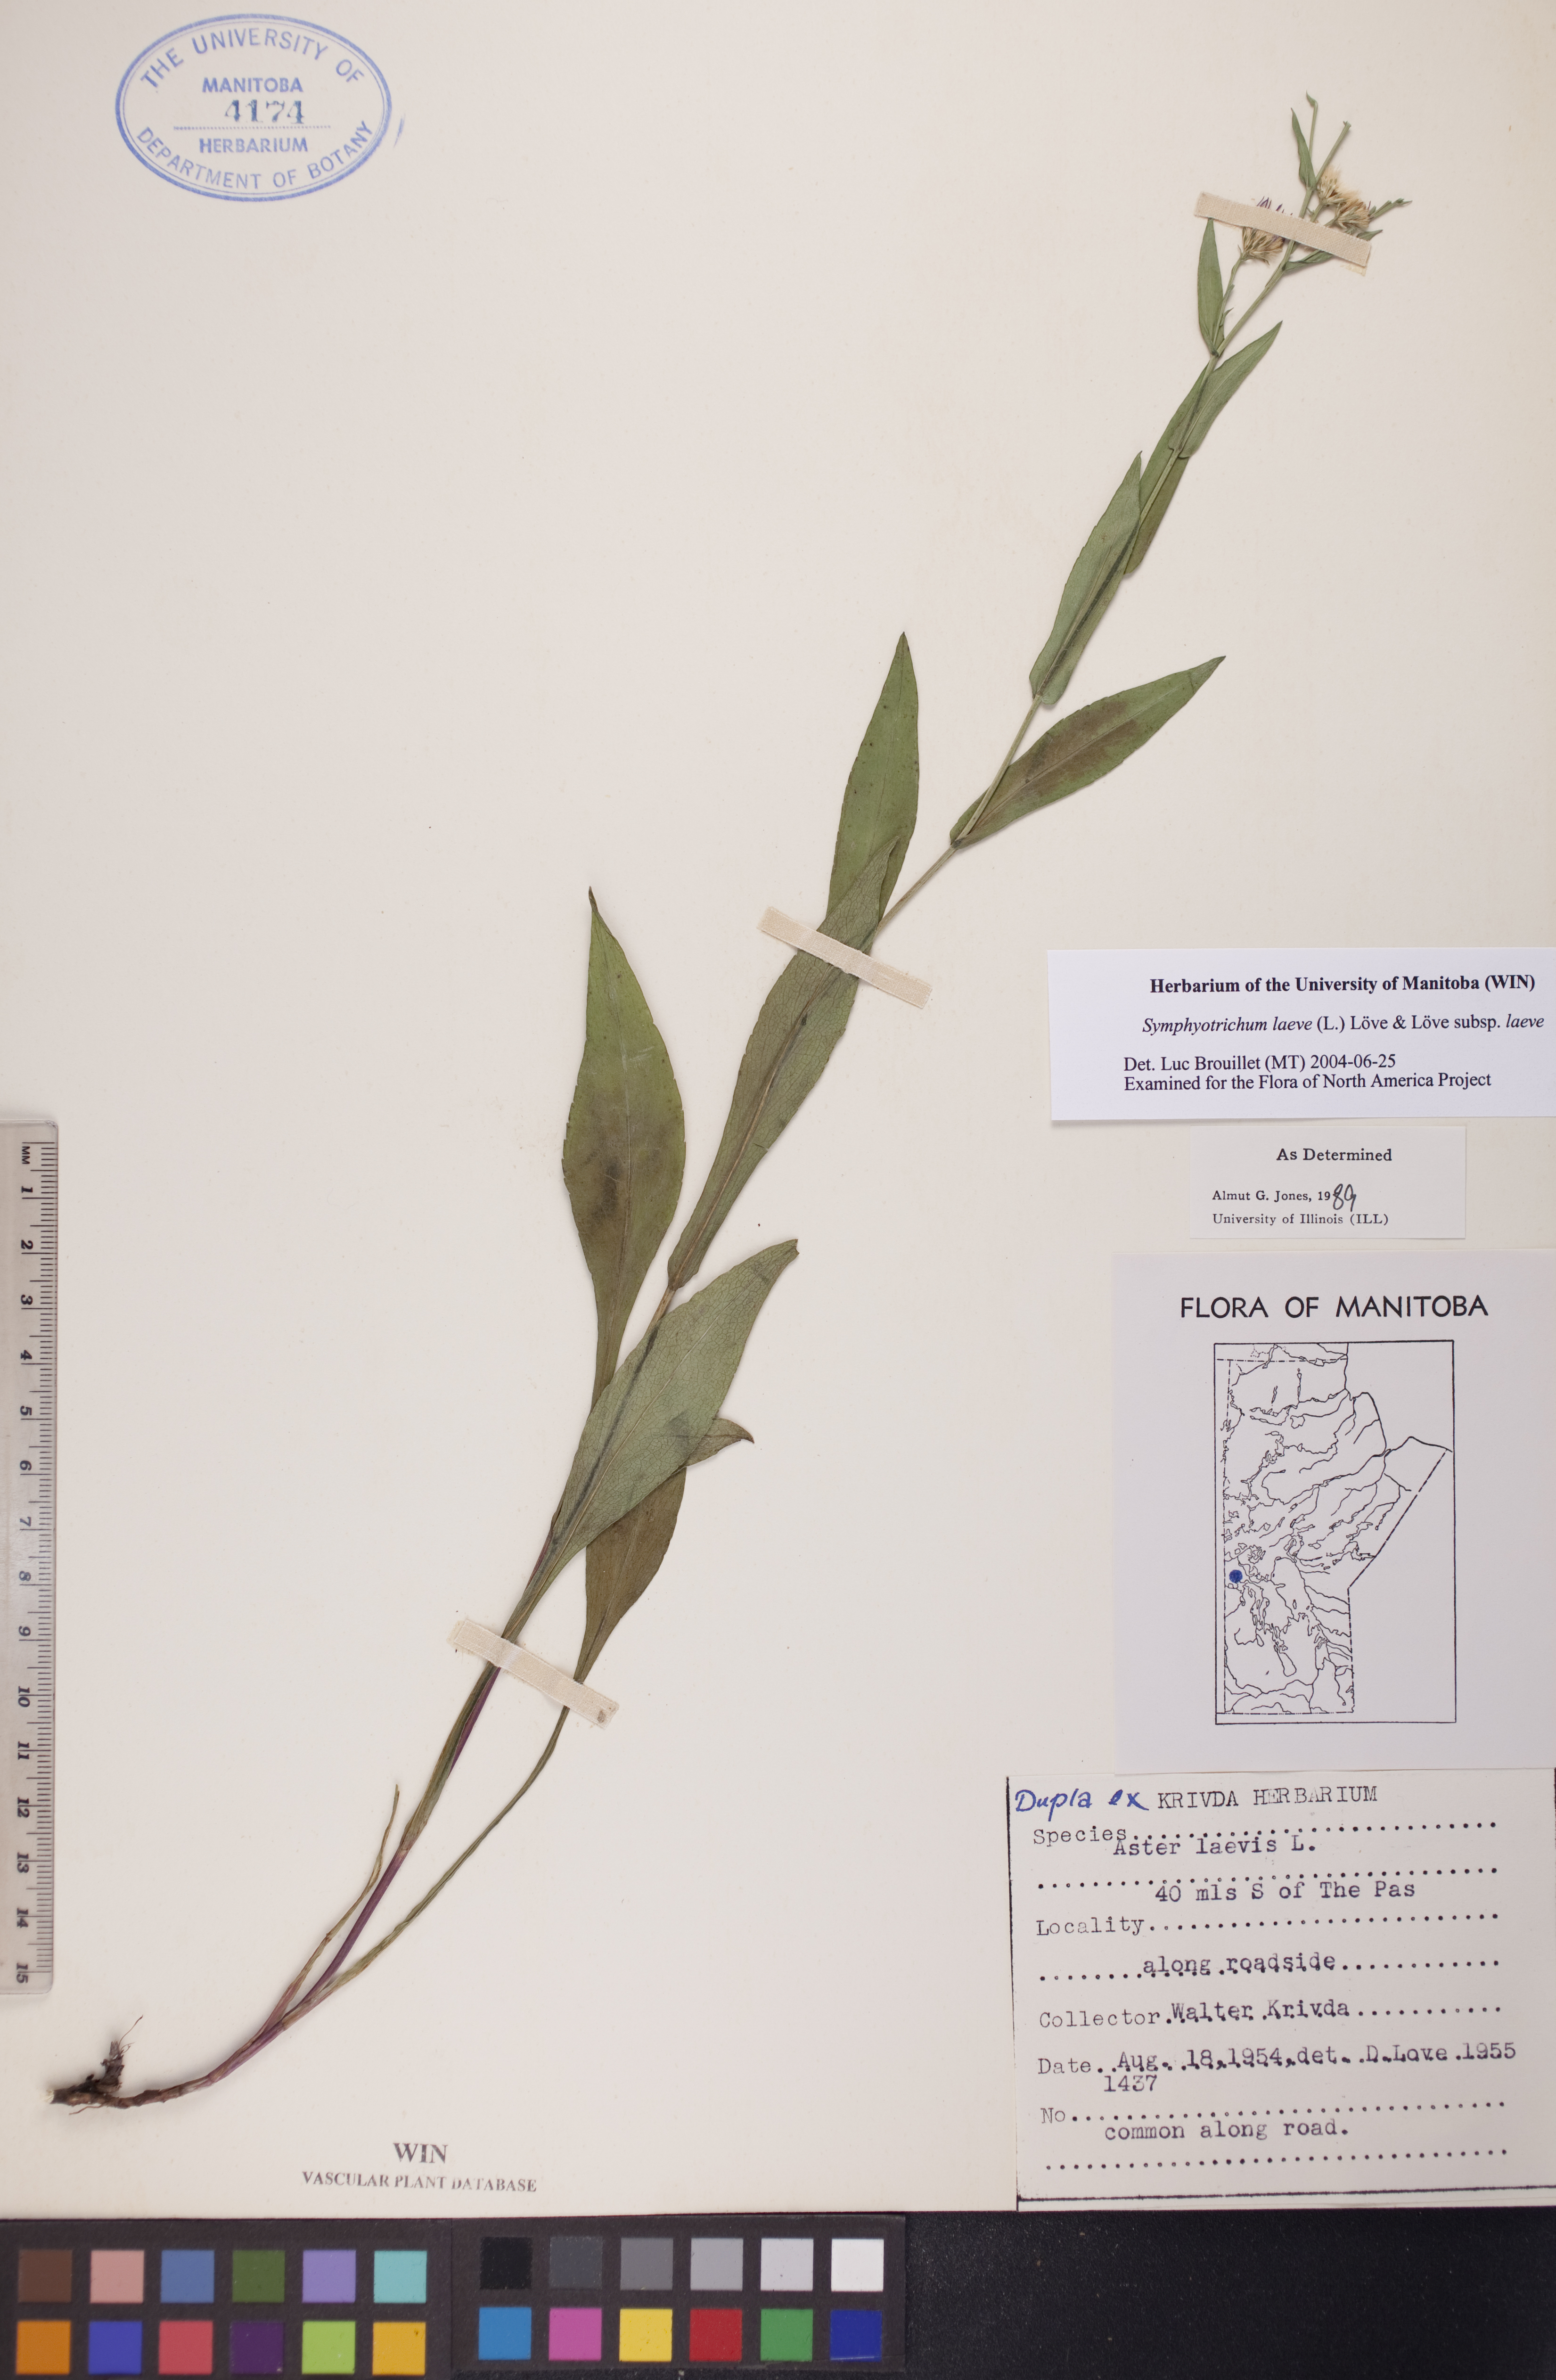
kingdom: Plantae
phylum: Tracheophyta
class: Magnoliopsida
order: Asterales
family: Asteraceae
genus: Symphyotrichum
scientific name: Symphyotrichum laeve
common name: Glaucous aster
